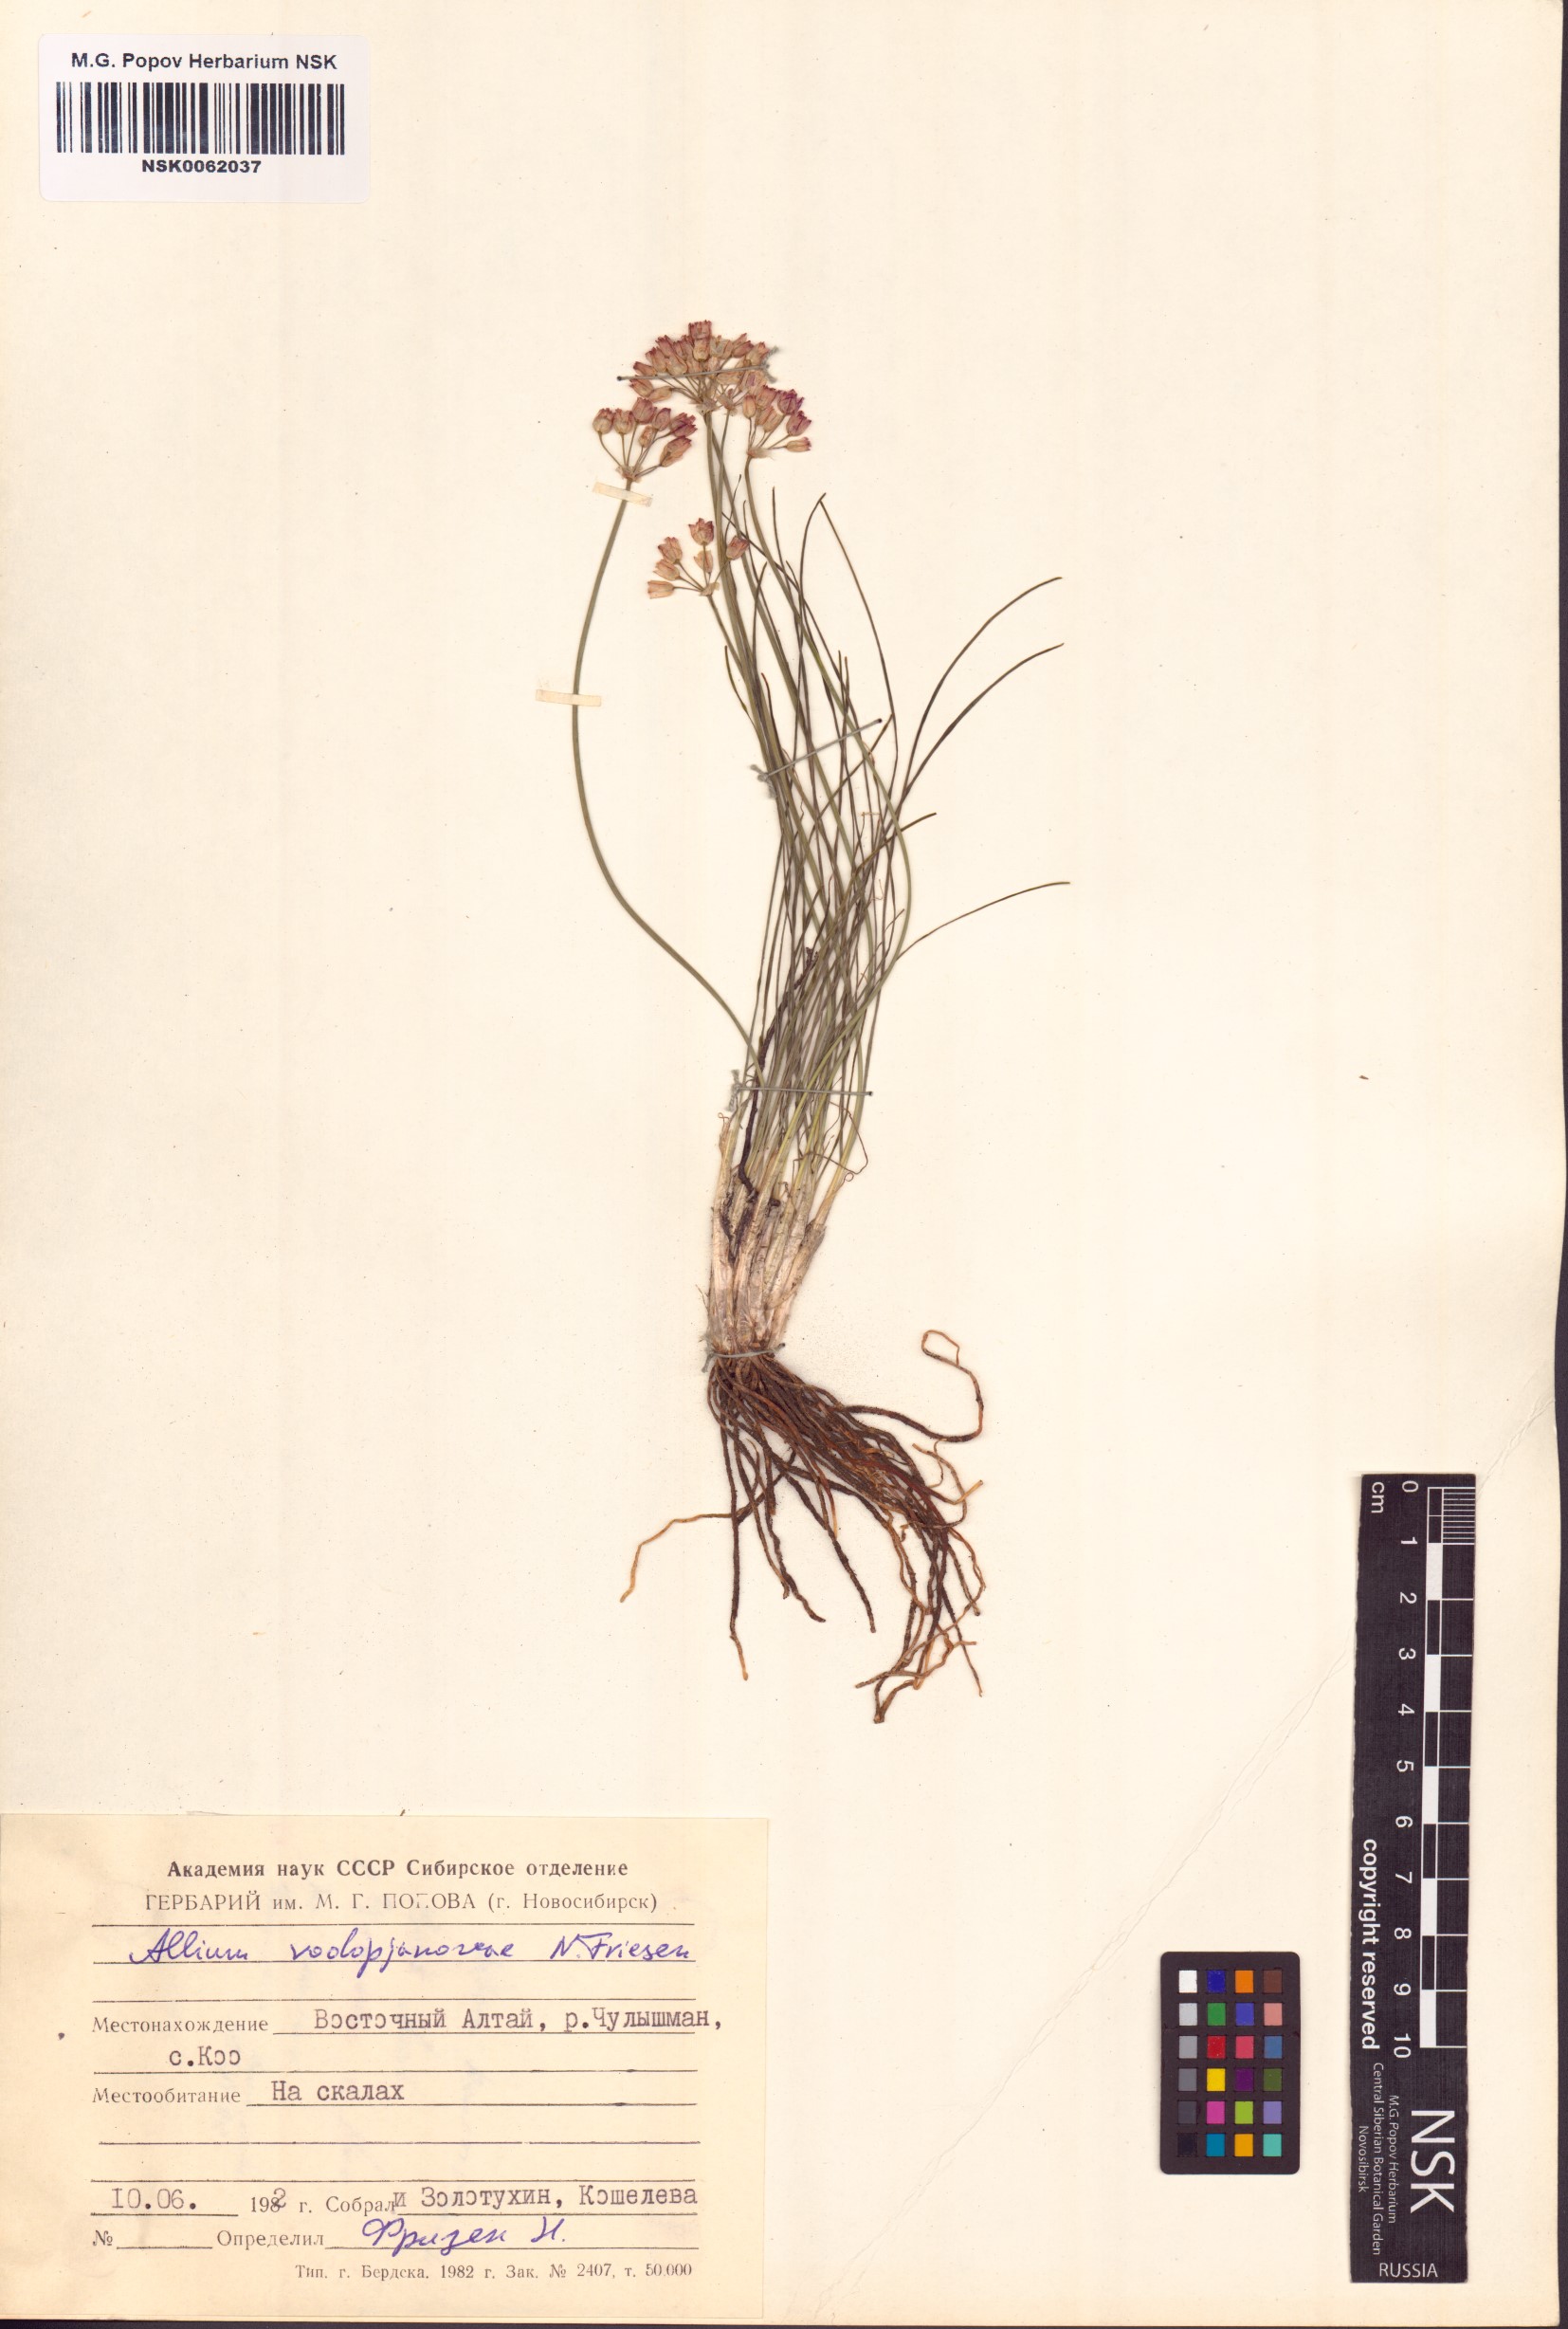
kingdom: Plantae
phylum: Tracheophyta
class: Liliopsida
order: Asparagales
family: Amaryllidaceae
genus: Allium
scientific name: Allium vodopjanovae
